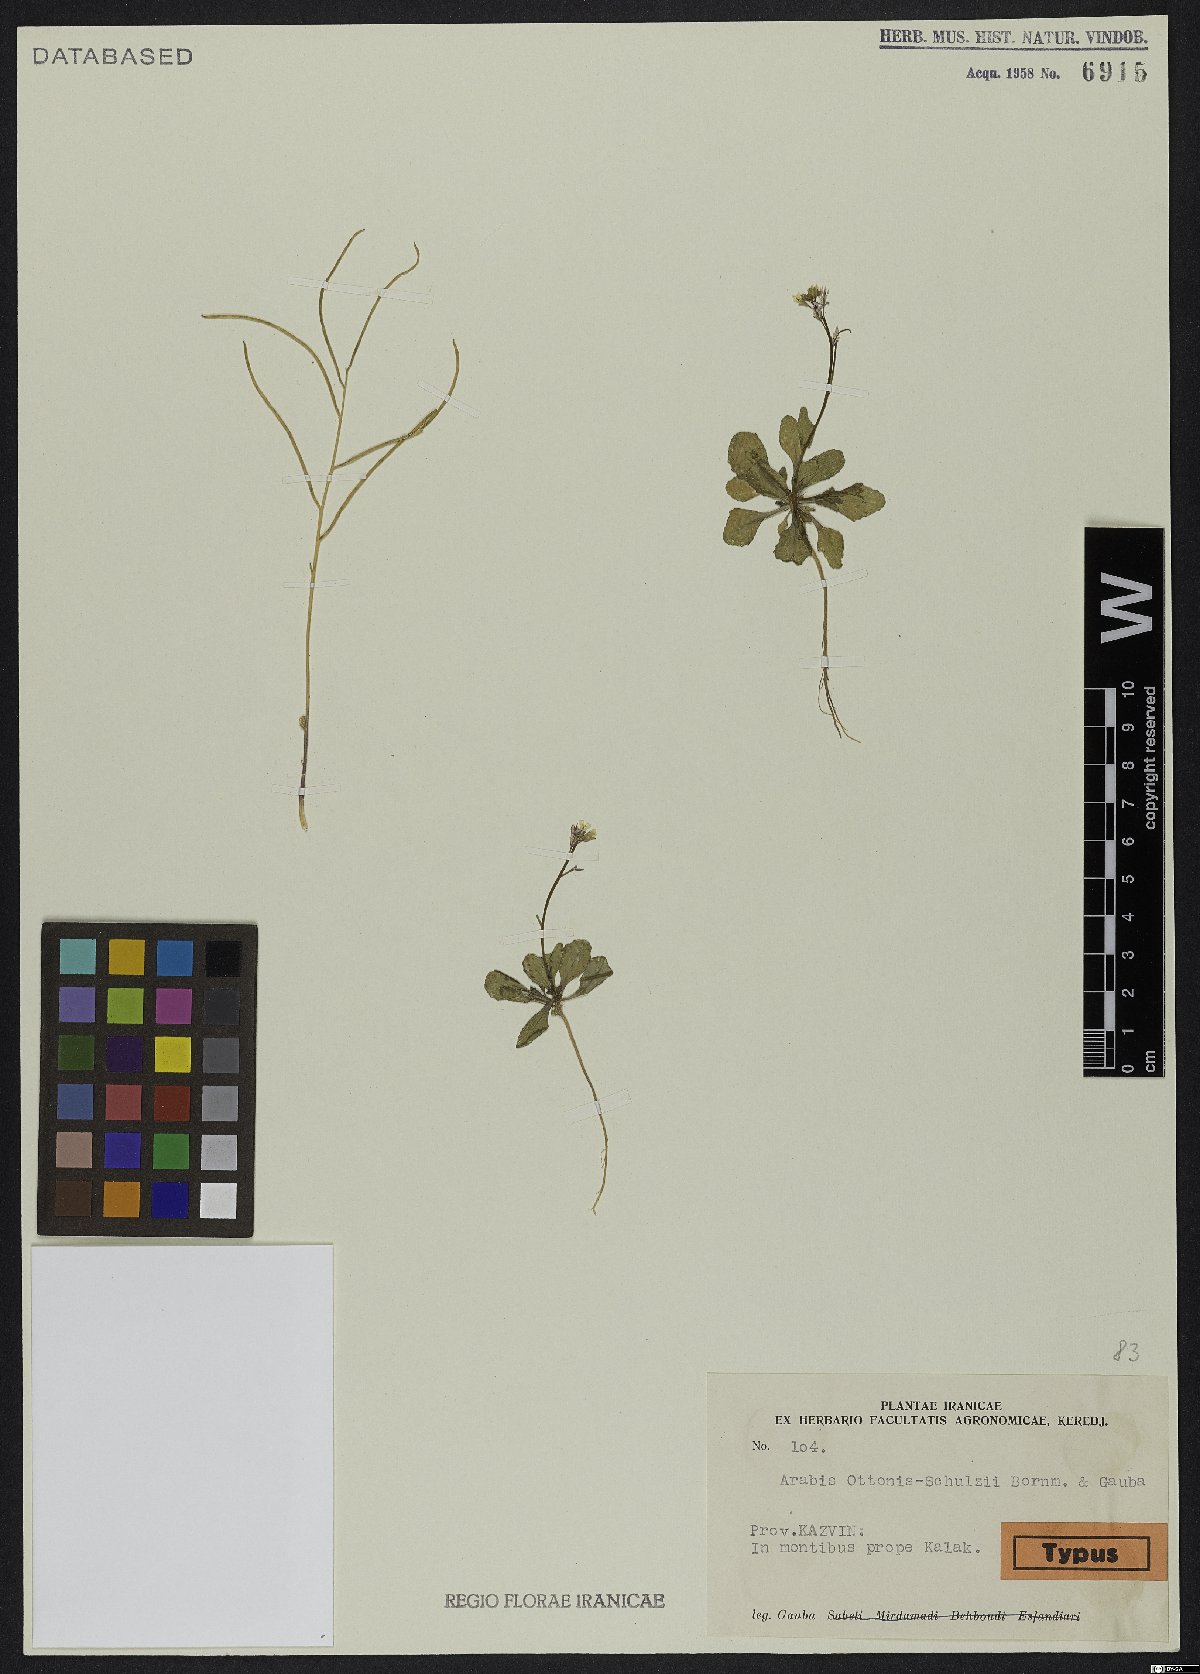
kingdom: Plantae
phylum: Tracheophyta
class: Magnoliopsida
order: Brassicales
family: Brassicaceae
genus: Arabis
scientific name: Arabis ottonis-schulzii
